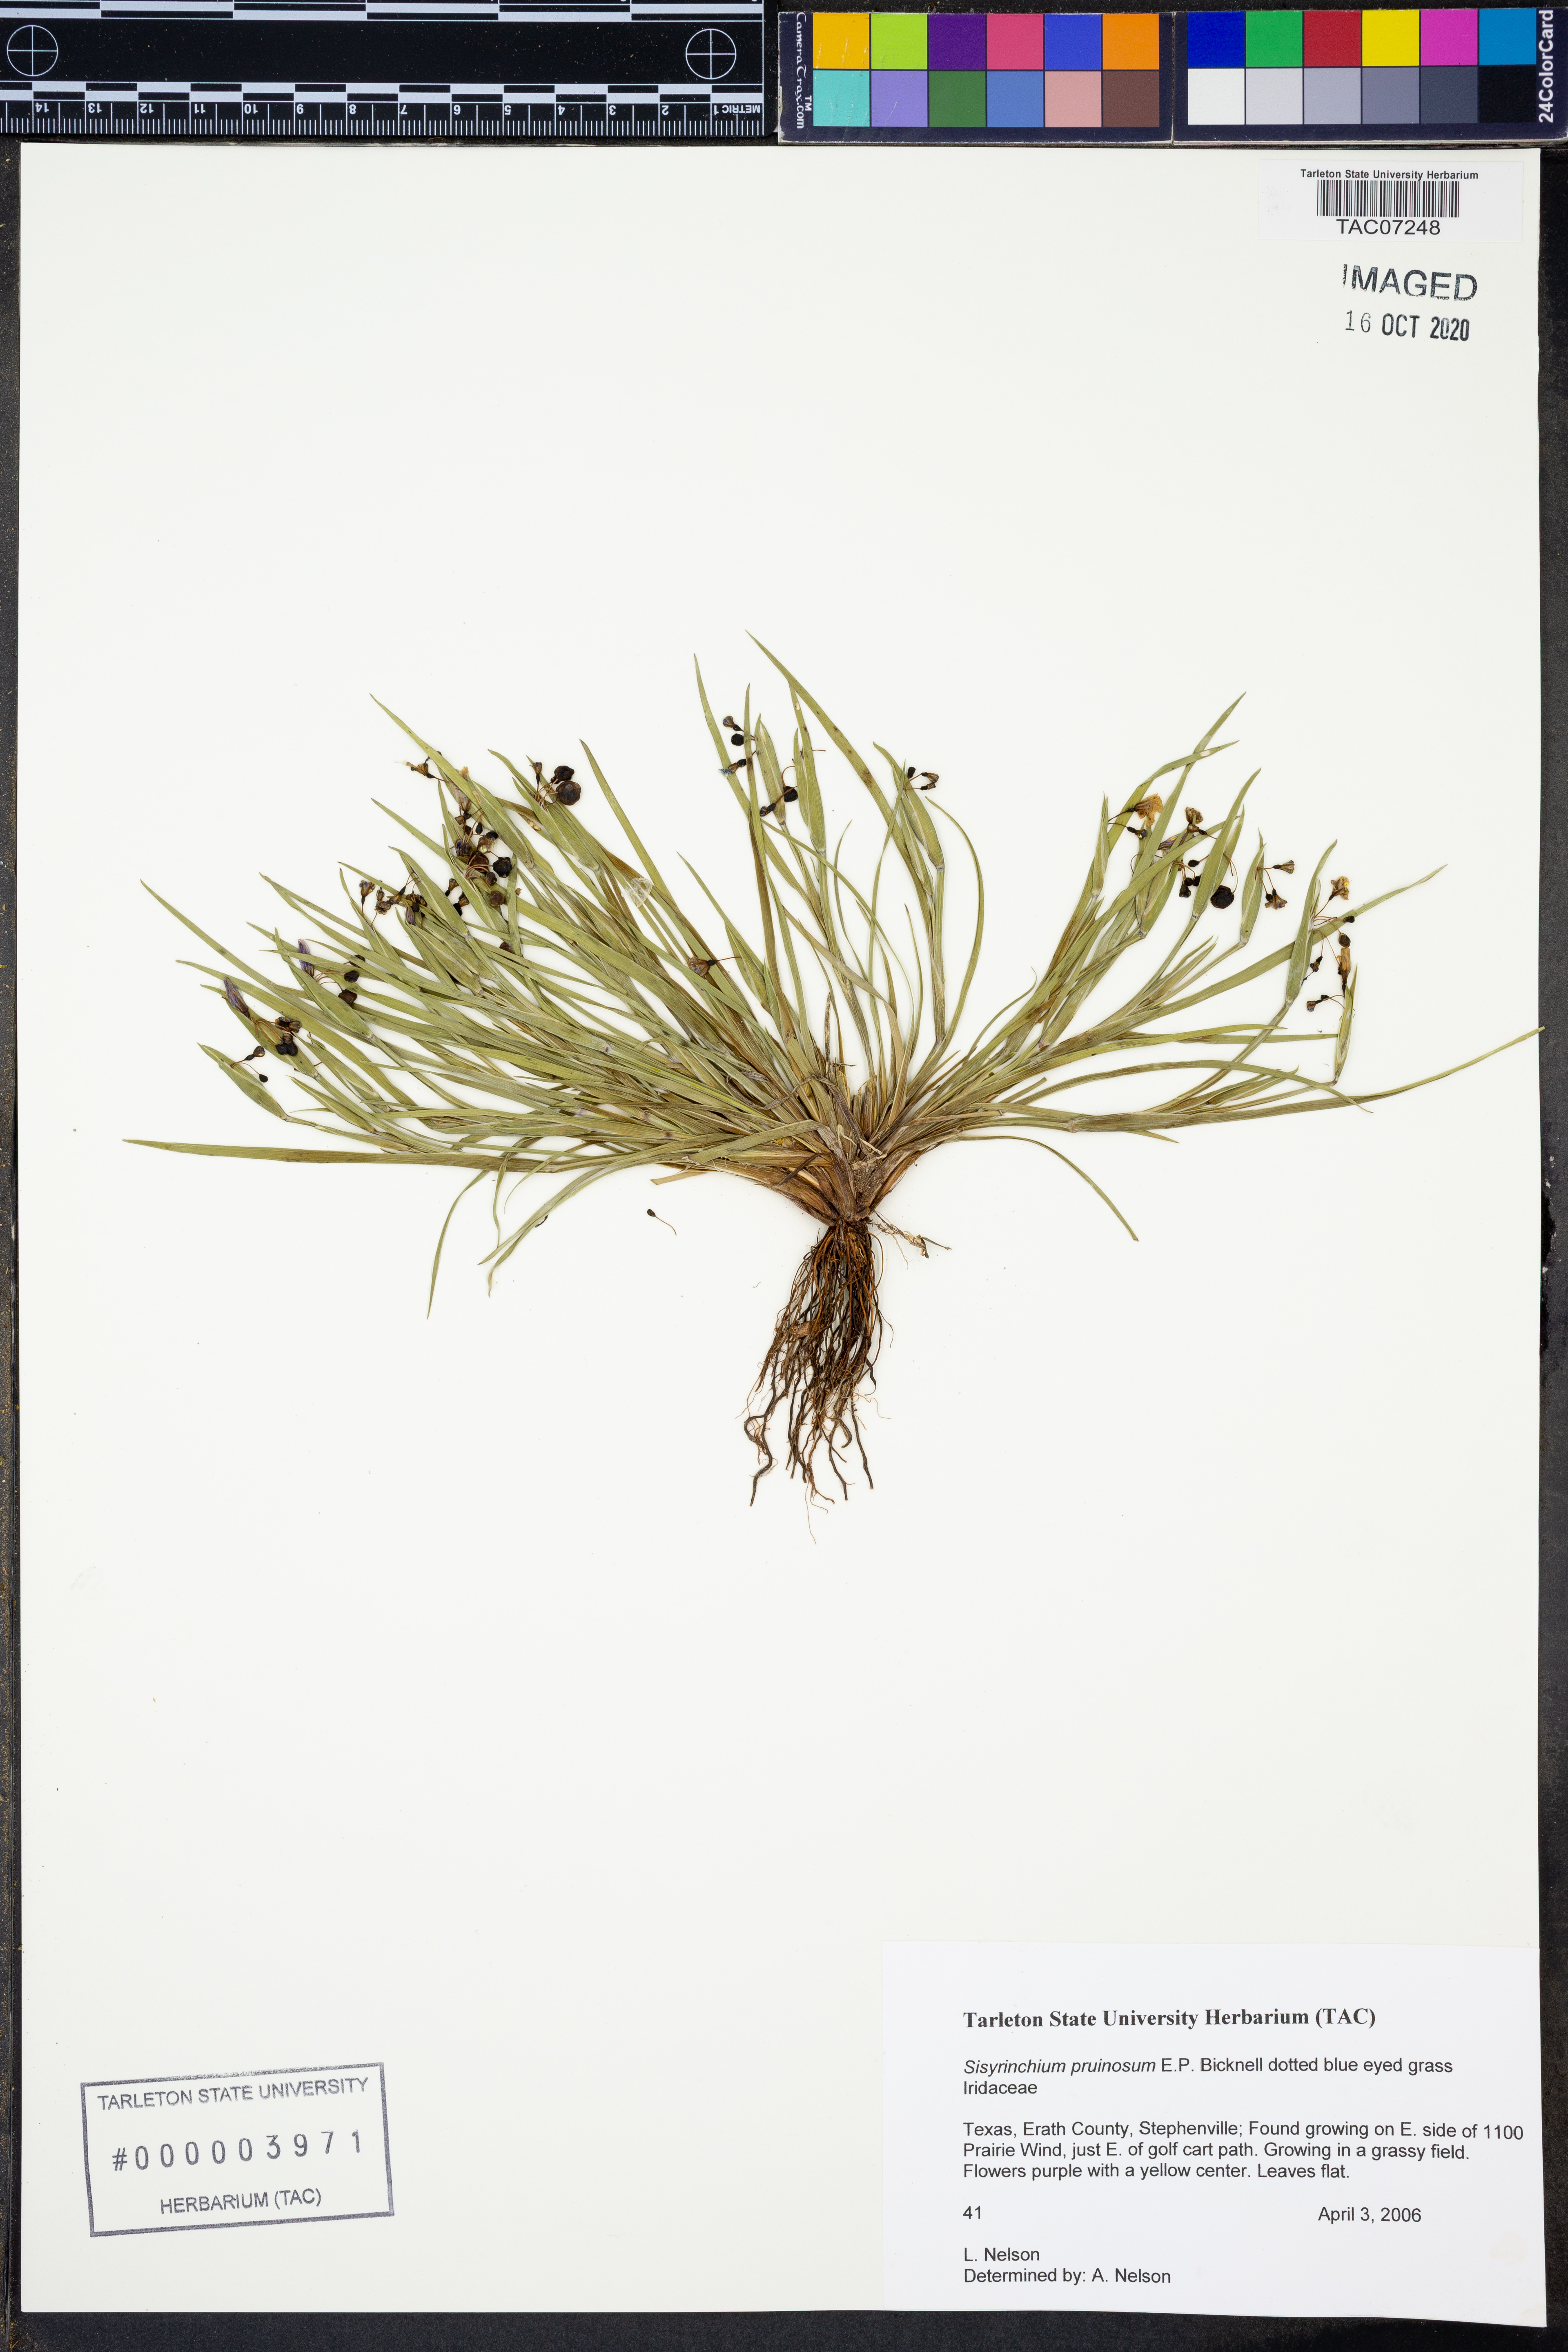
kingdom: Plantae
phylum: Tracheophyta
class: Liliopsida
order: Asparagales
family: Iridaceae
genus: Sisyrinchium
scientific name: Sisyrinchium pruinosum
